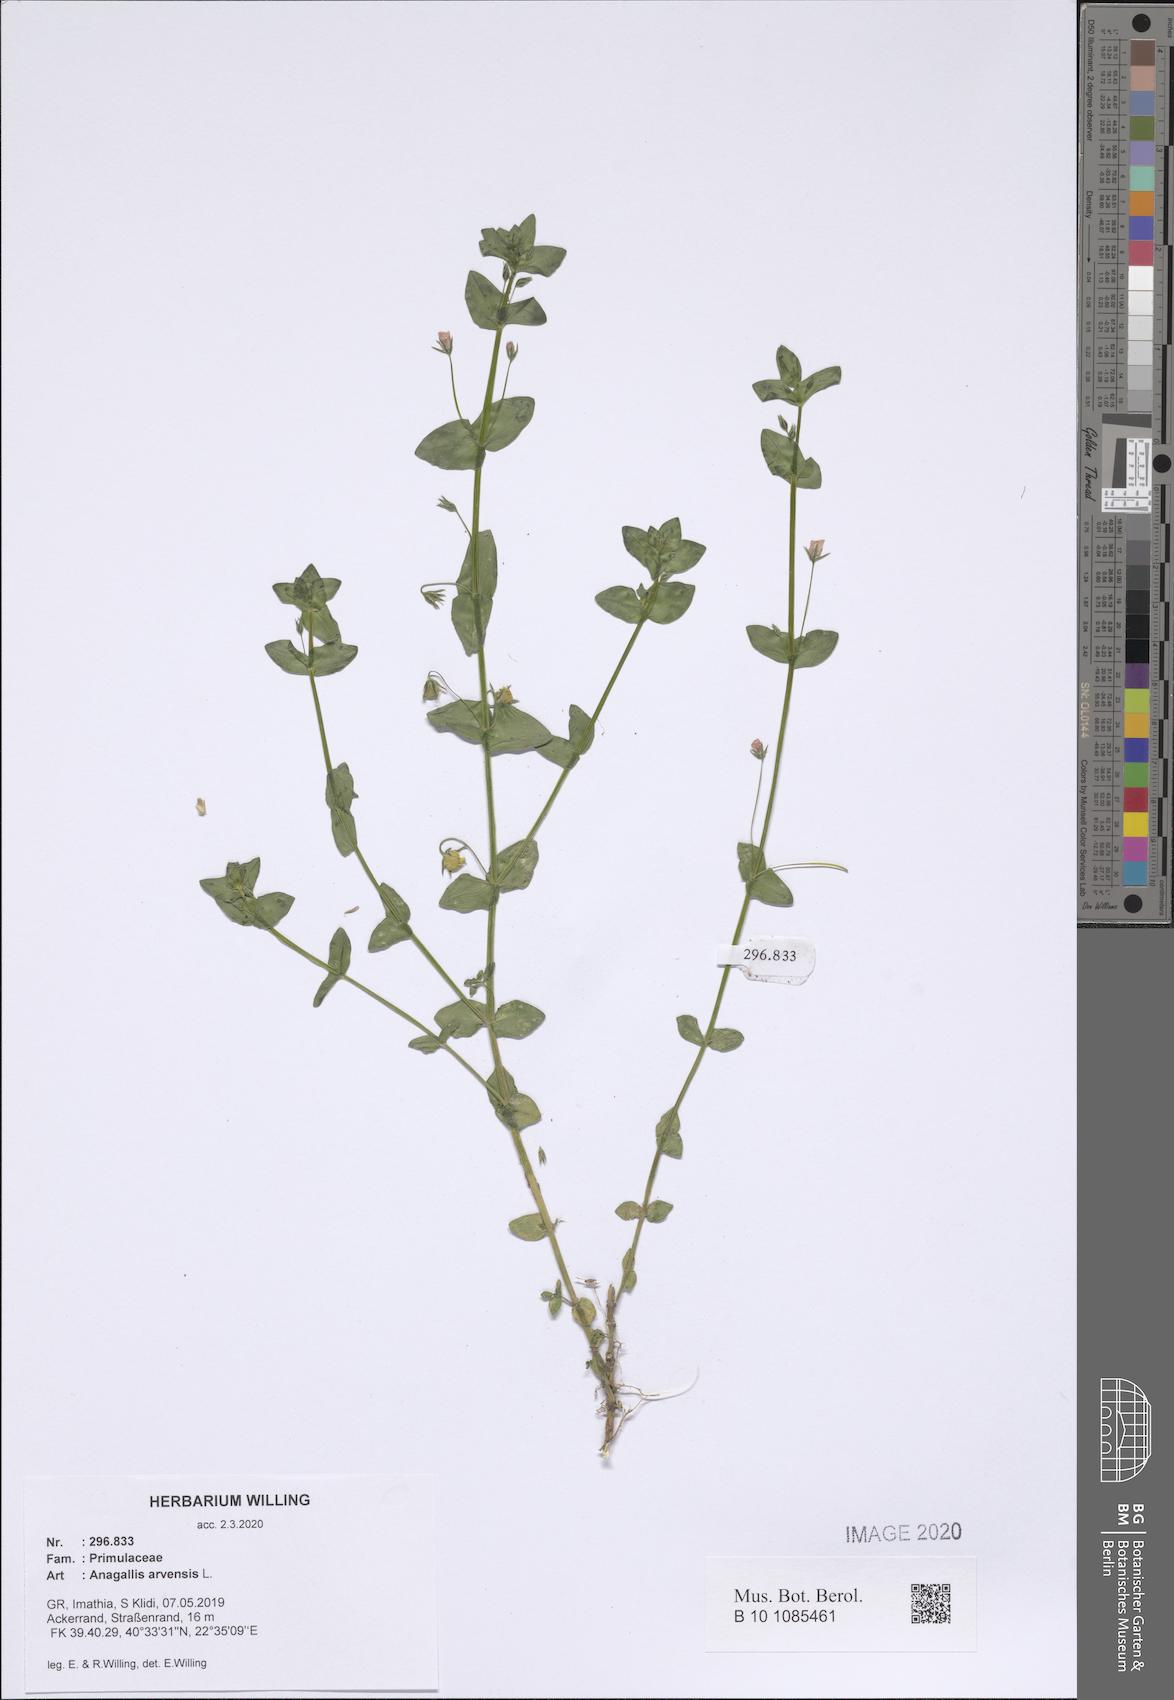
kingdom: Plantae
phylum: Tracheophyta
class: Magnoliopsida
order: Ericales
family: Primulaceae
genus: Lysimachia
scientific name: Lysimachia arvensis
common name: Scarlet pimpernel
